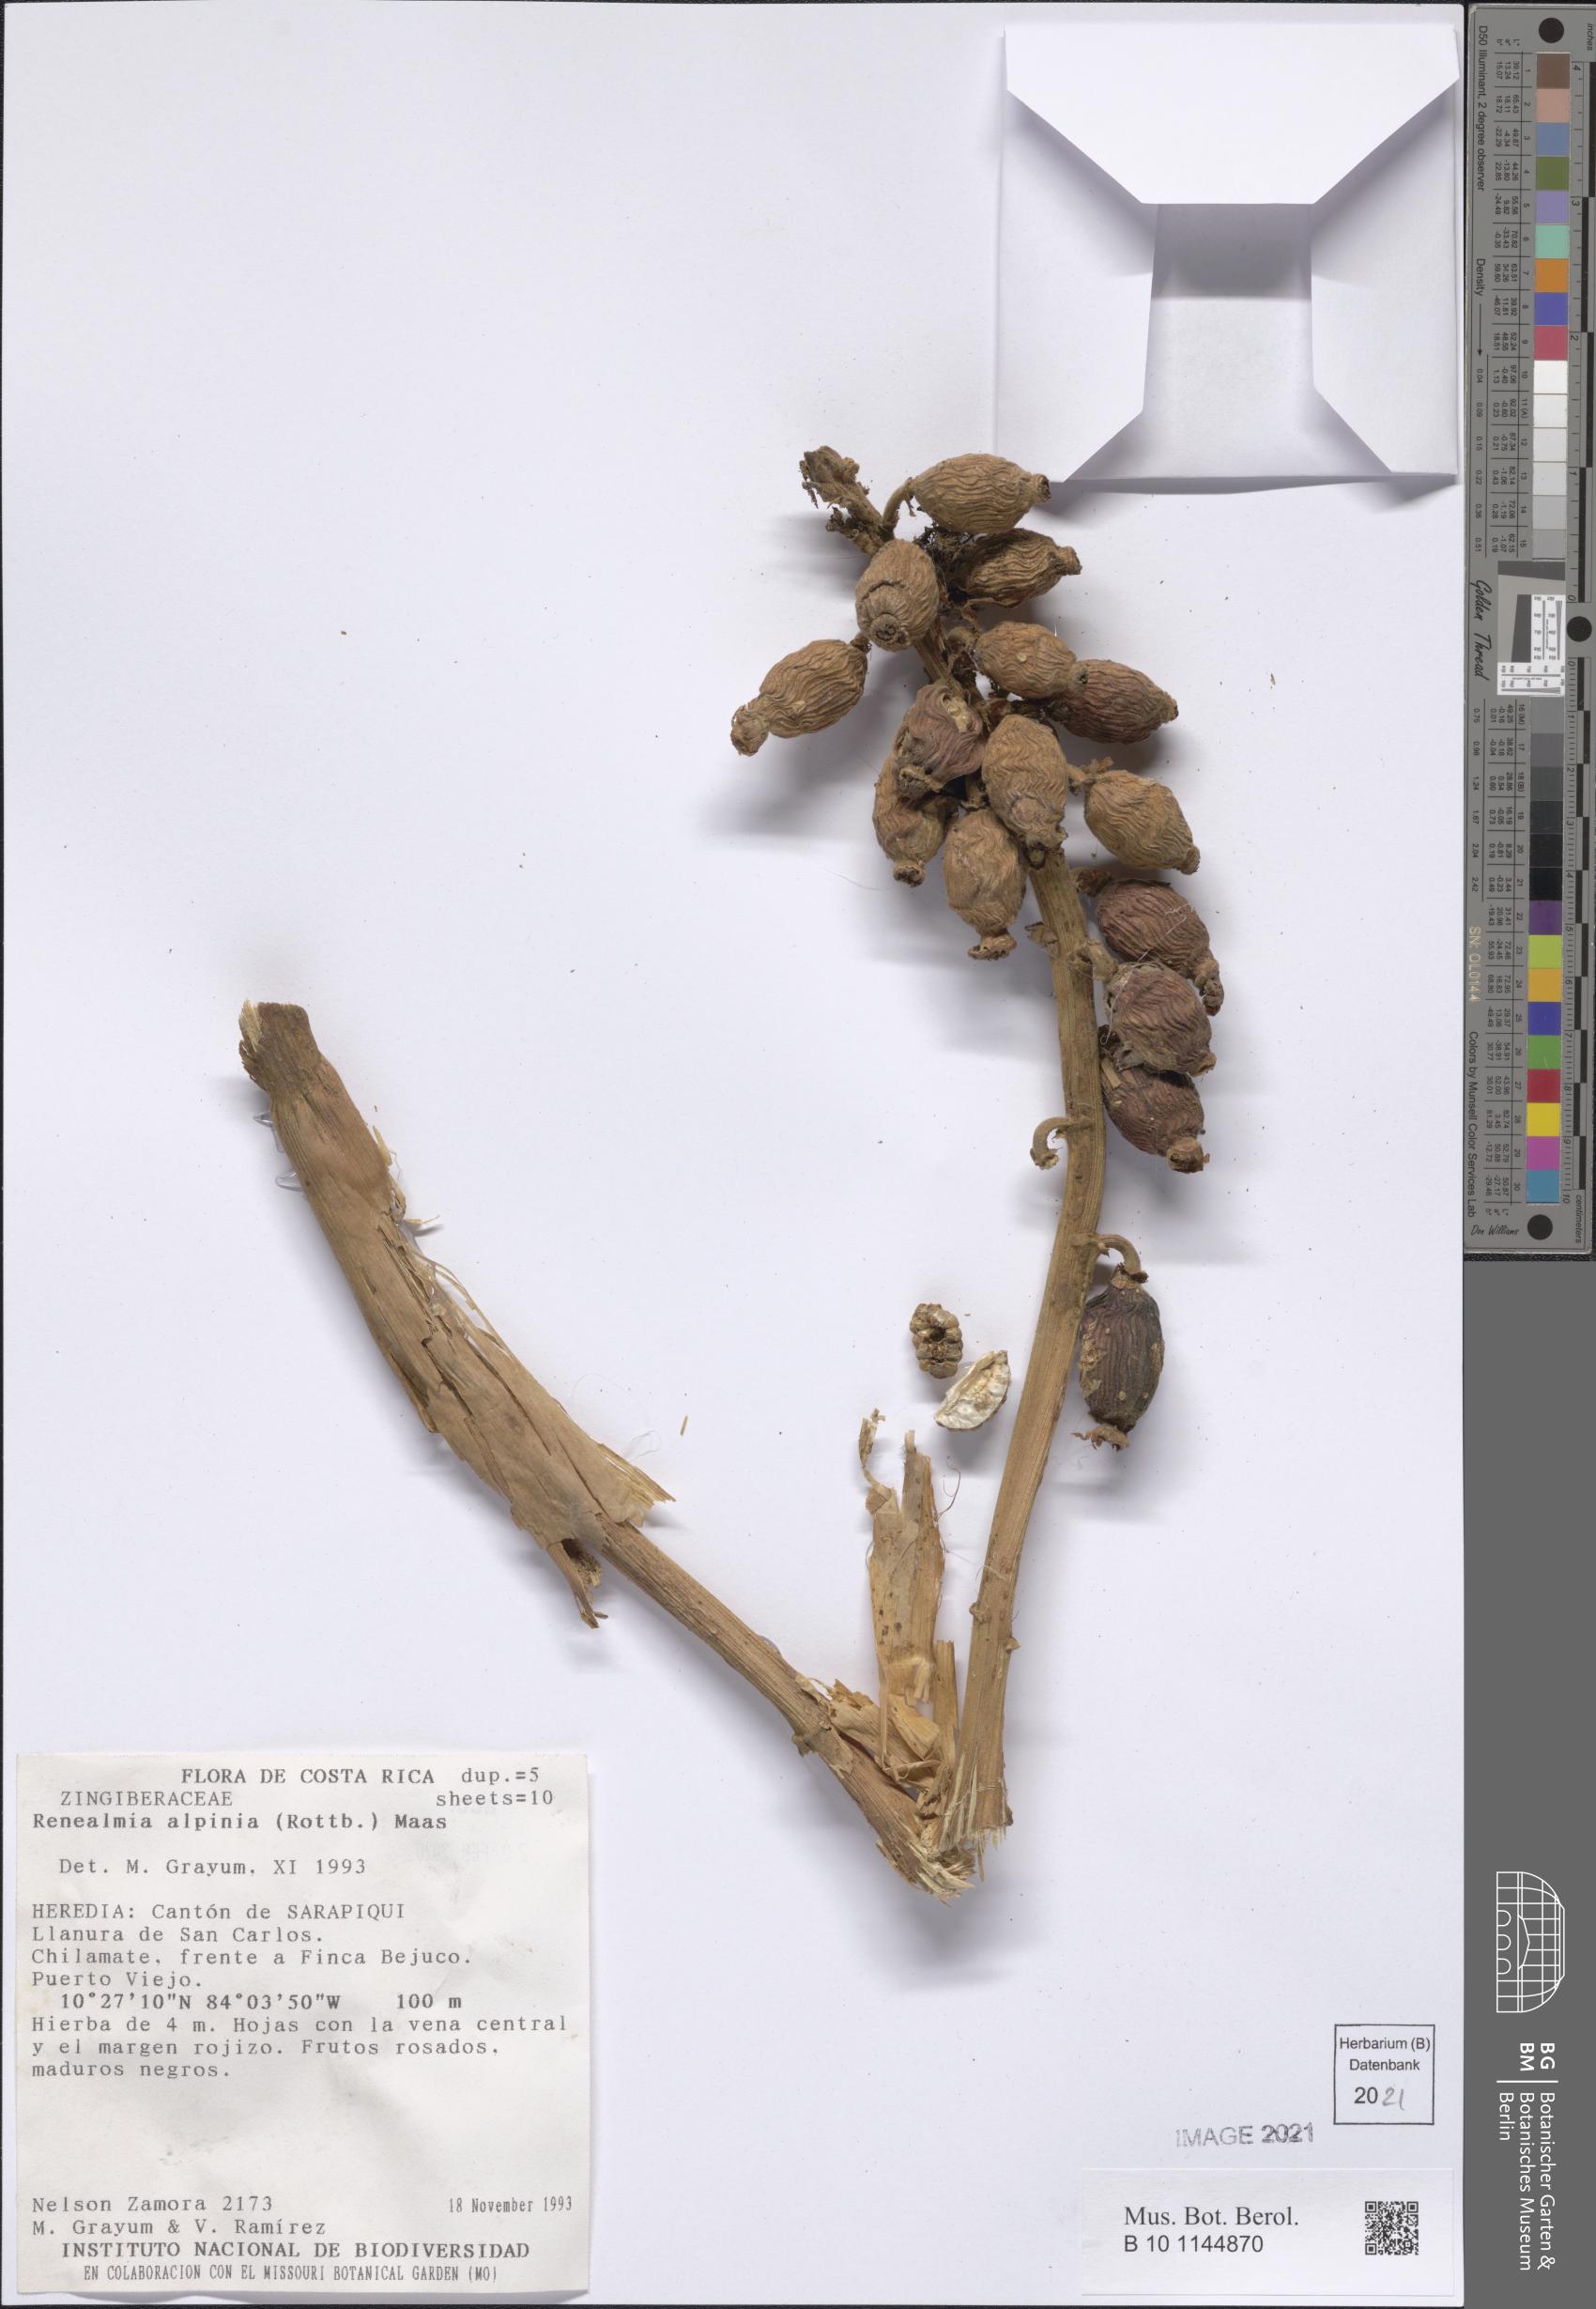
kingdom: Plantae
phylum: Tracheophyta
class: Liliopsida
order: Zingiberales
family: Zingiberaceae
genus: Renealmia
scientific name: Renealmia alpinia
